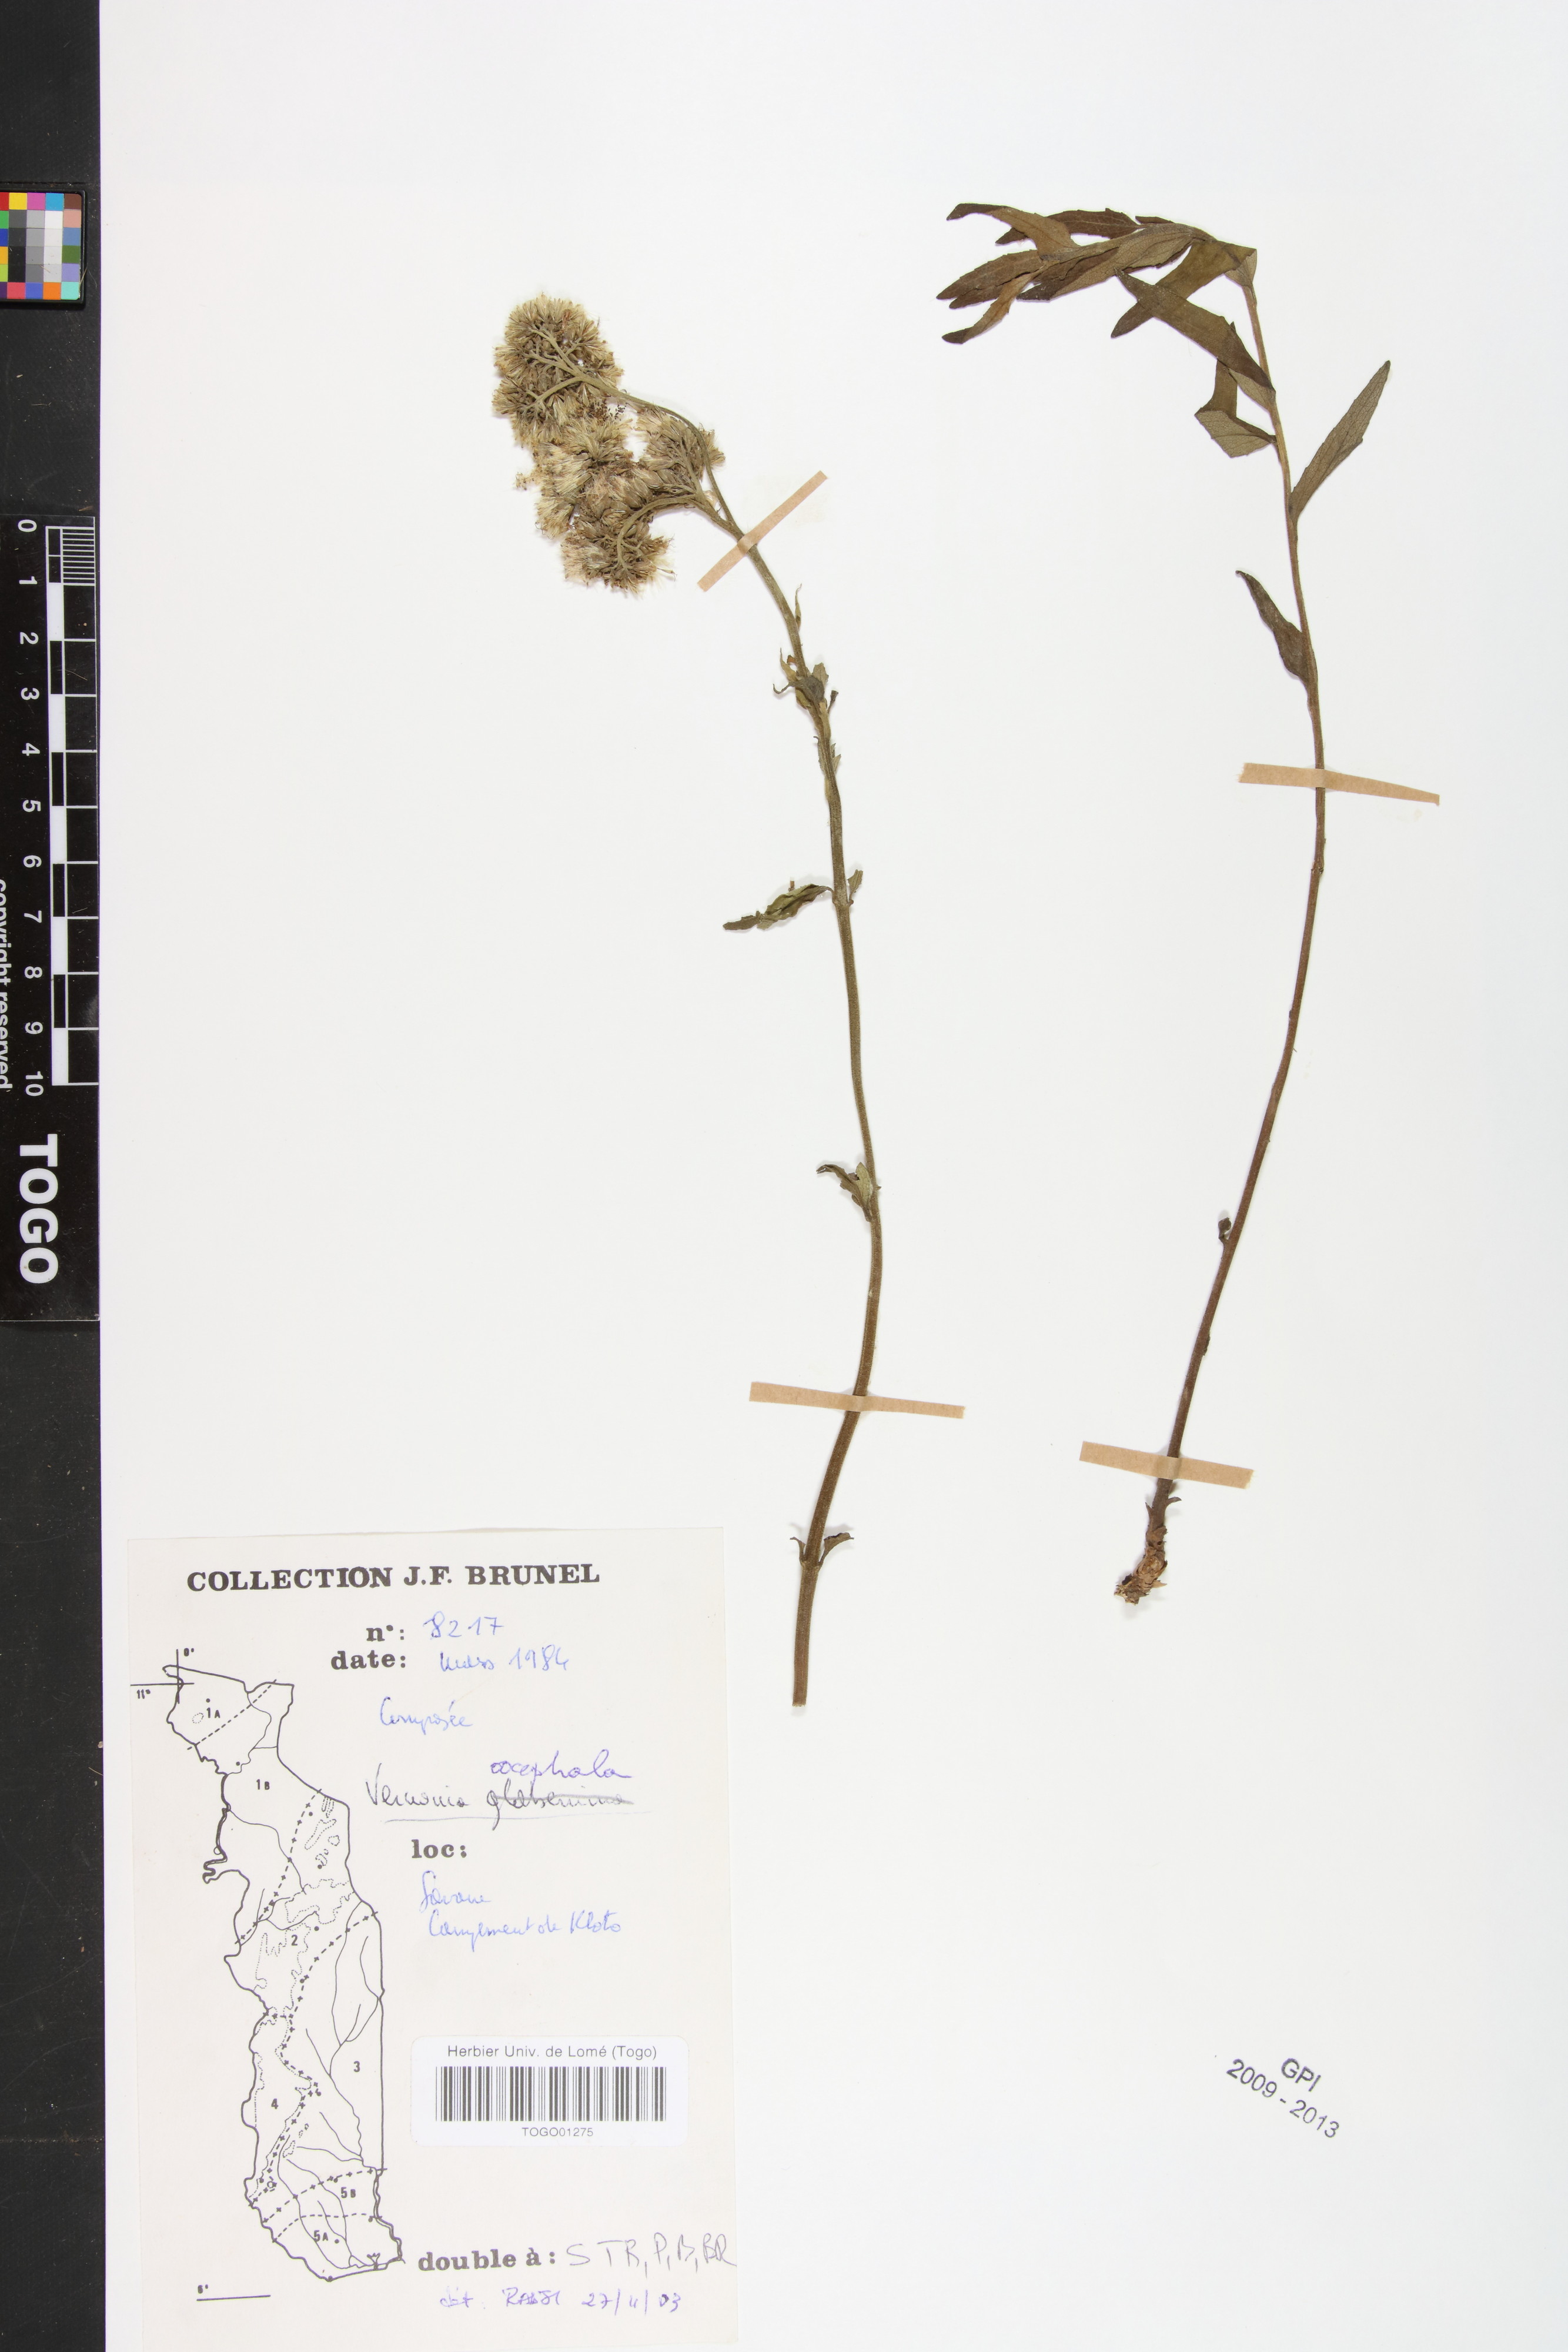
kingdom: Plantae
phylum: Tracheophyta
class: Magnoliopsida
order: Asterales
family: Asteraceae
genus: Oocephala
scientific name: Oocephala stenocephala
